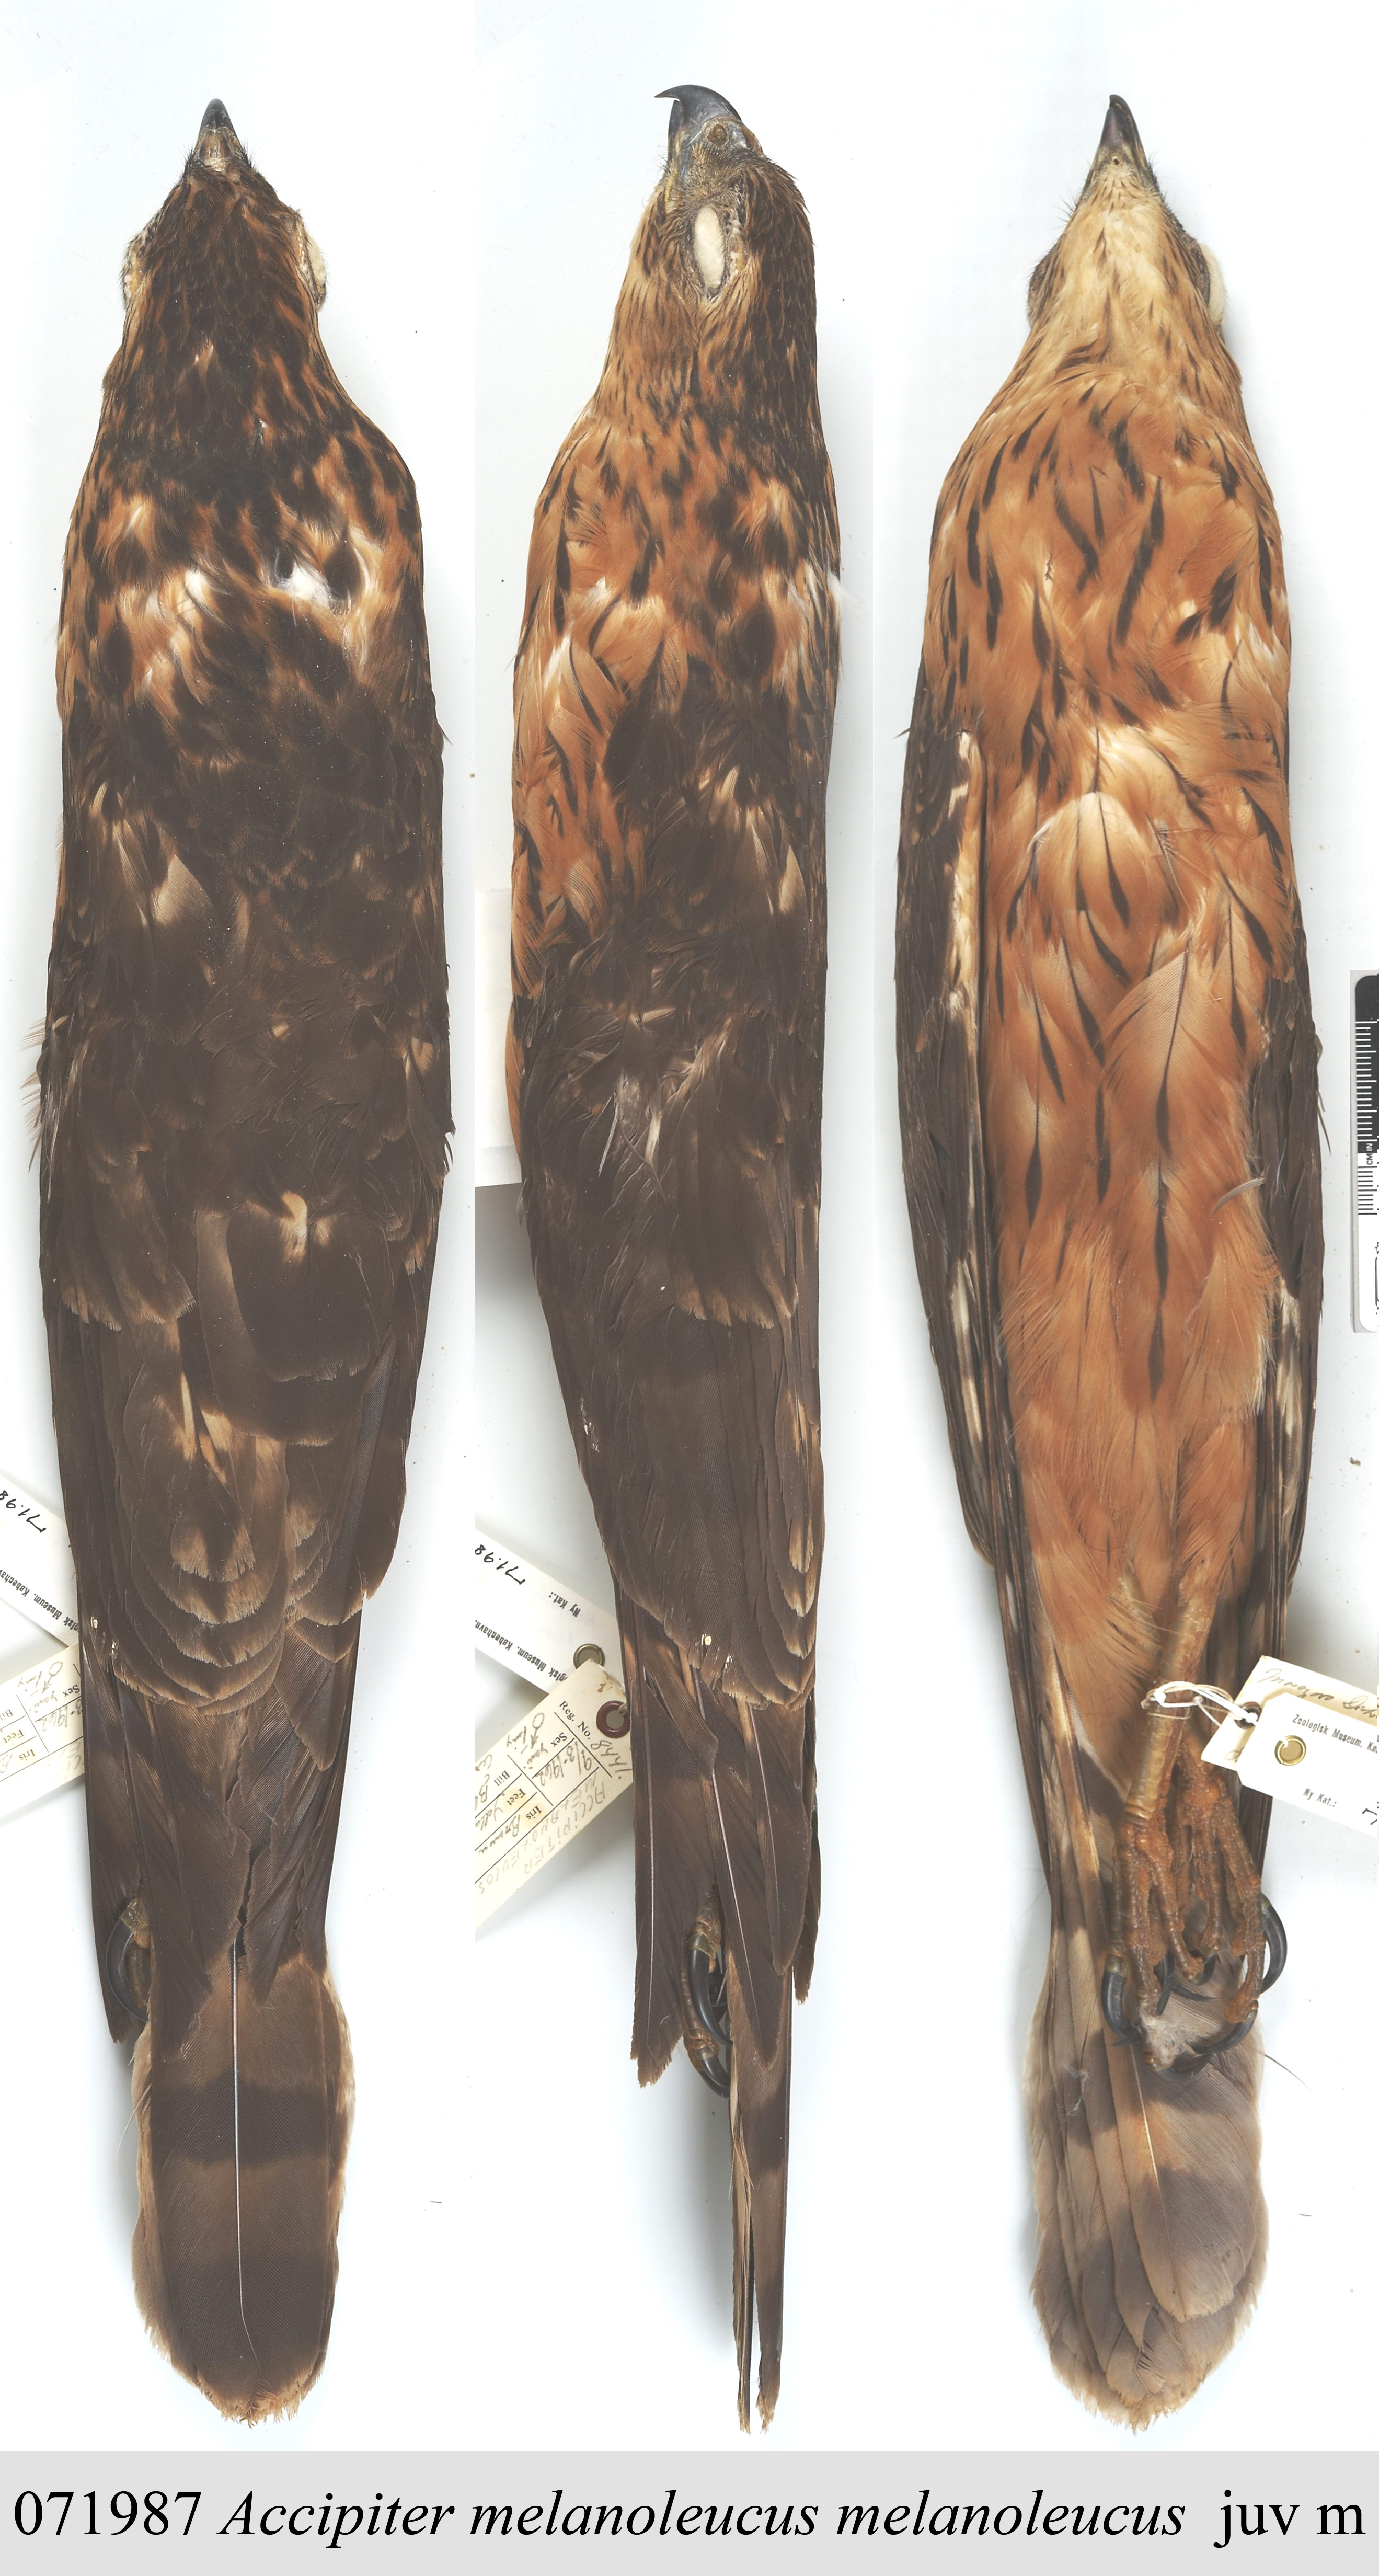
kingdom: Animalia
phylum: Chordata
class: Aves
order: Accipitriformes
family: Accipitridae
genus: Accipiter
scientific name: Accipiter melanoleucus
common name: Black sparrowhawk
